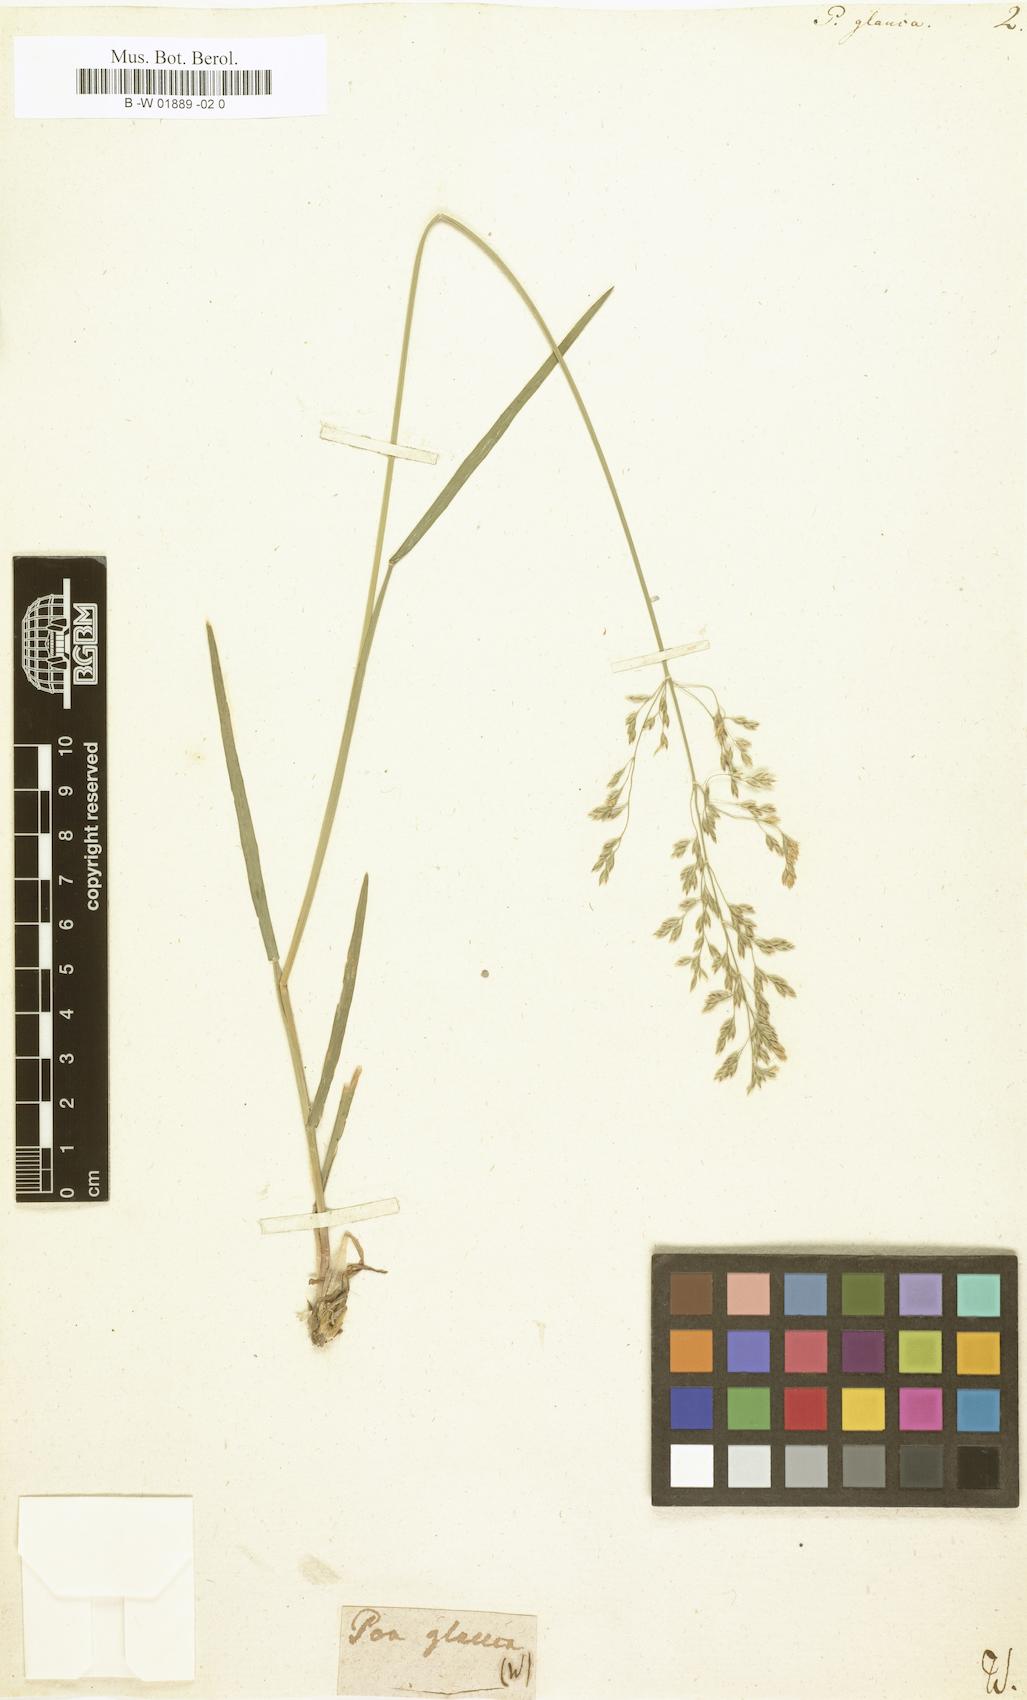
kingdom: Plantae
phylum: Tracheophyta
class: Liliopsida
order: Poales
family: Poaceae
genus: Poa
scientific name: Poa glauca
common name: Glaucous bluegrass
